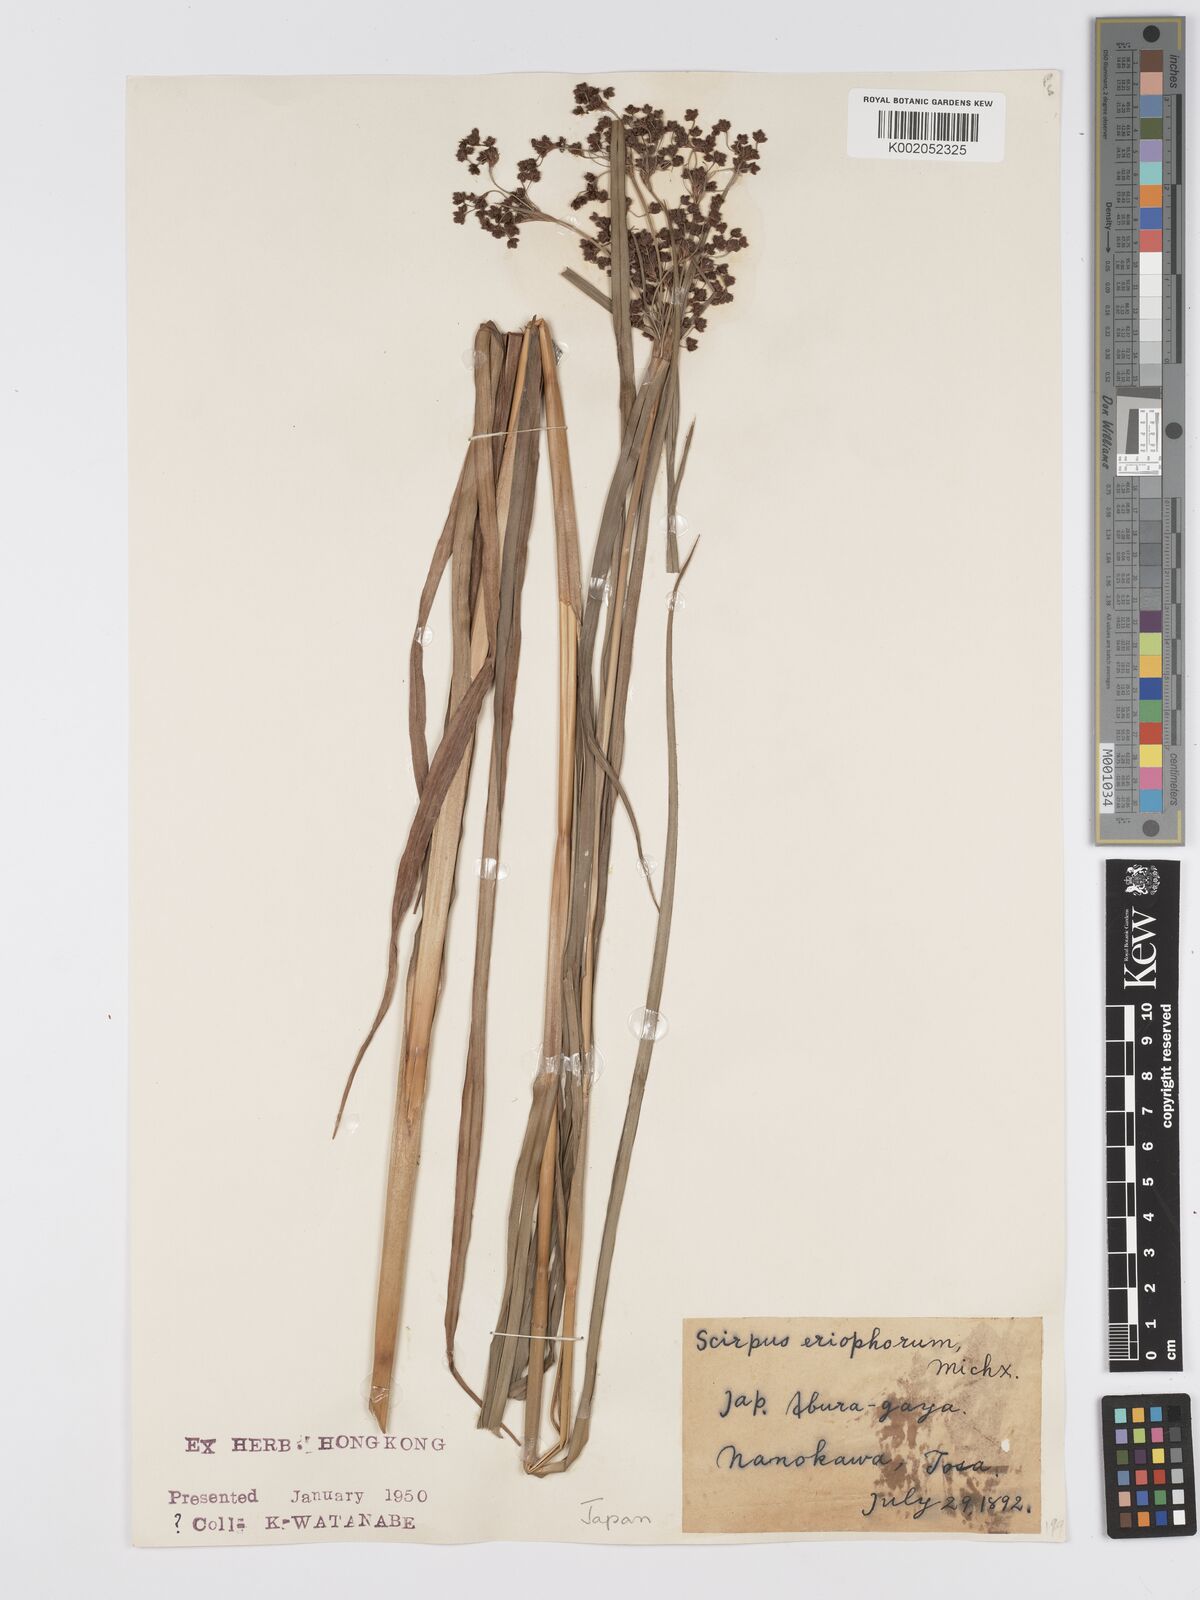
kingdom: Plantae
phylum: Tracheophyta
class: Liliopsida
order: Poales
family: Cyperaceae
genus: Scirpus
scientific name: Scirpus cyperinus
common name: Black-sheathed bulrush
